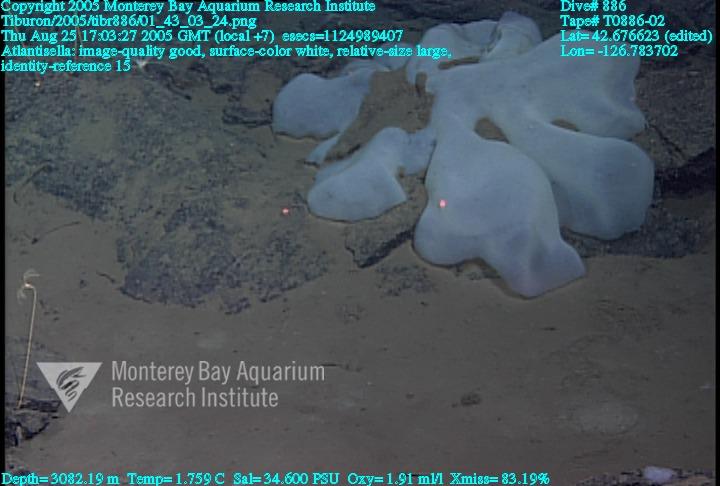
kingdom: Animalia
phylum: Porifera
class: Hexactinellida
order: Lyssacinosida
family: Euplectellidae
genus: Atlantisella
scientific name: Atlantisella
